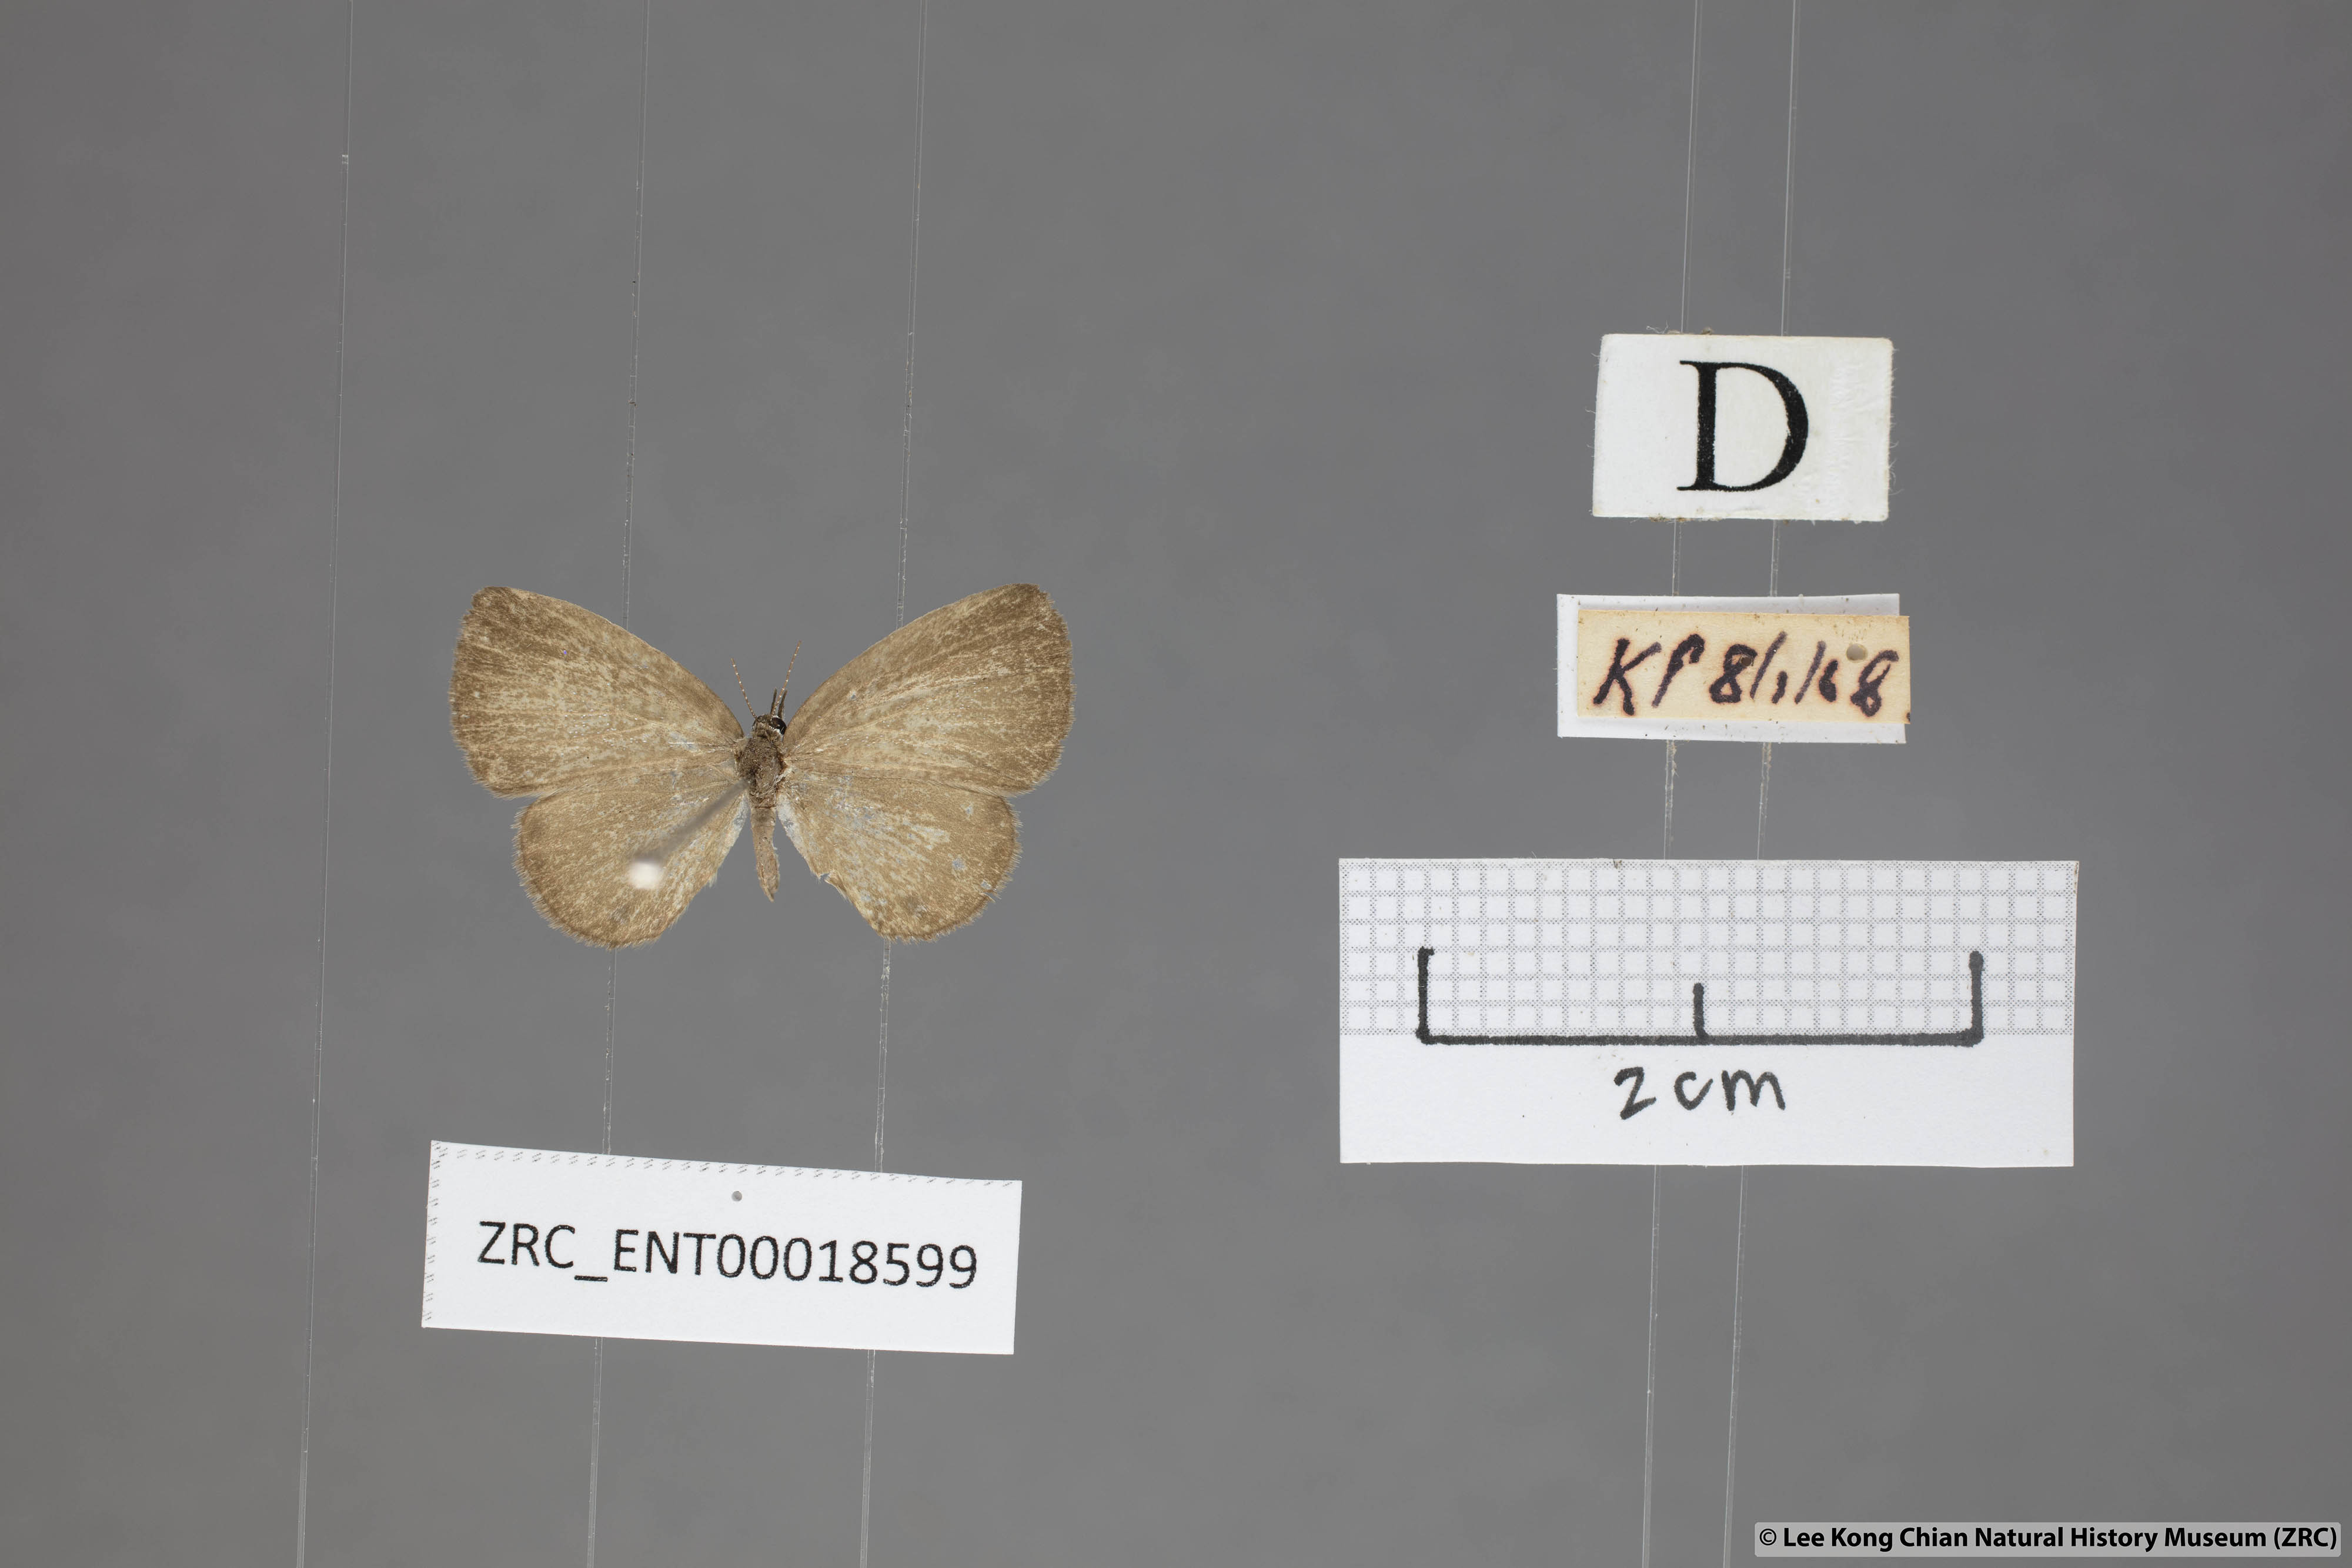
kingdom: Animalia
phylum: Arthropoda
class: Insecta
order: Lepidoptera
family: Lycaenidae
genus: Prosotas
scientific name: Prosotas lutea
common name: Brown lineblue
